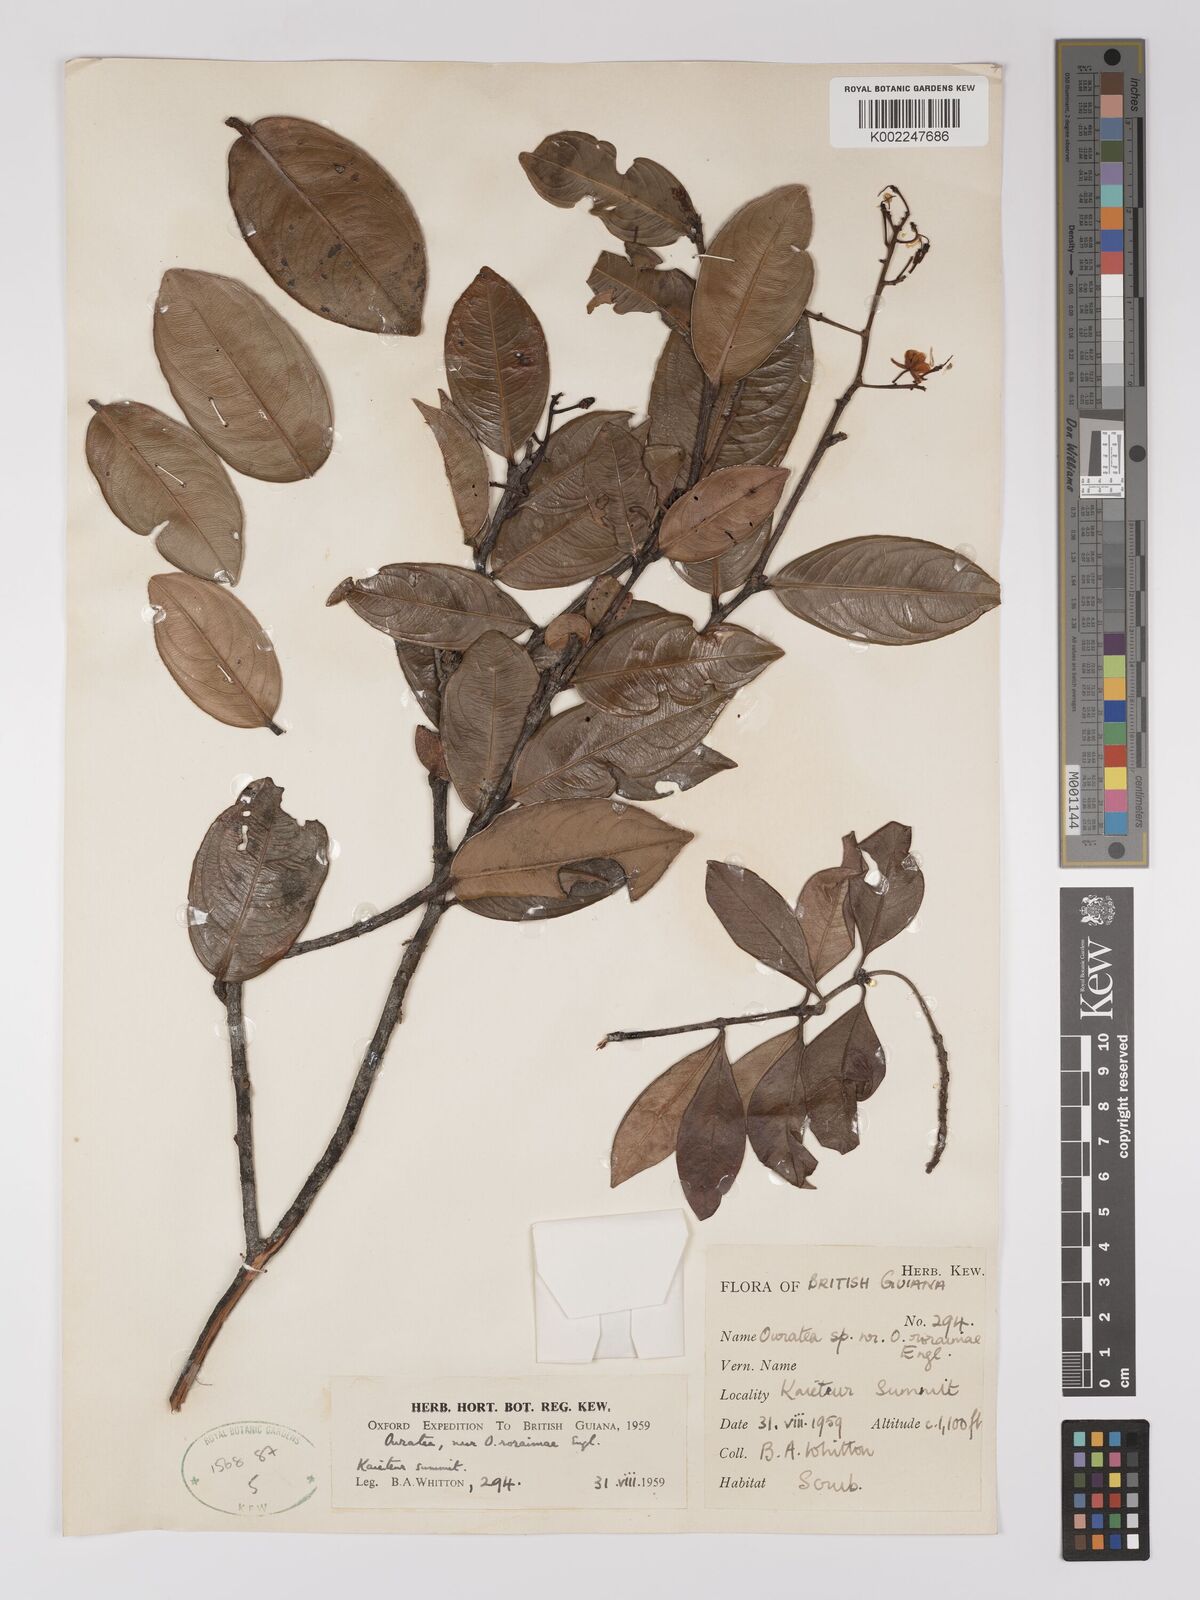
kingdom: Plantae
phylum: Tracheophyta
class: Magnoliopsida
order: Malpighiales
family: Ochnaceae
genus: Ouratea
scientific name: Ouratea roraimae
